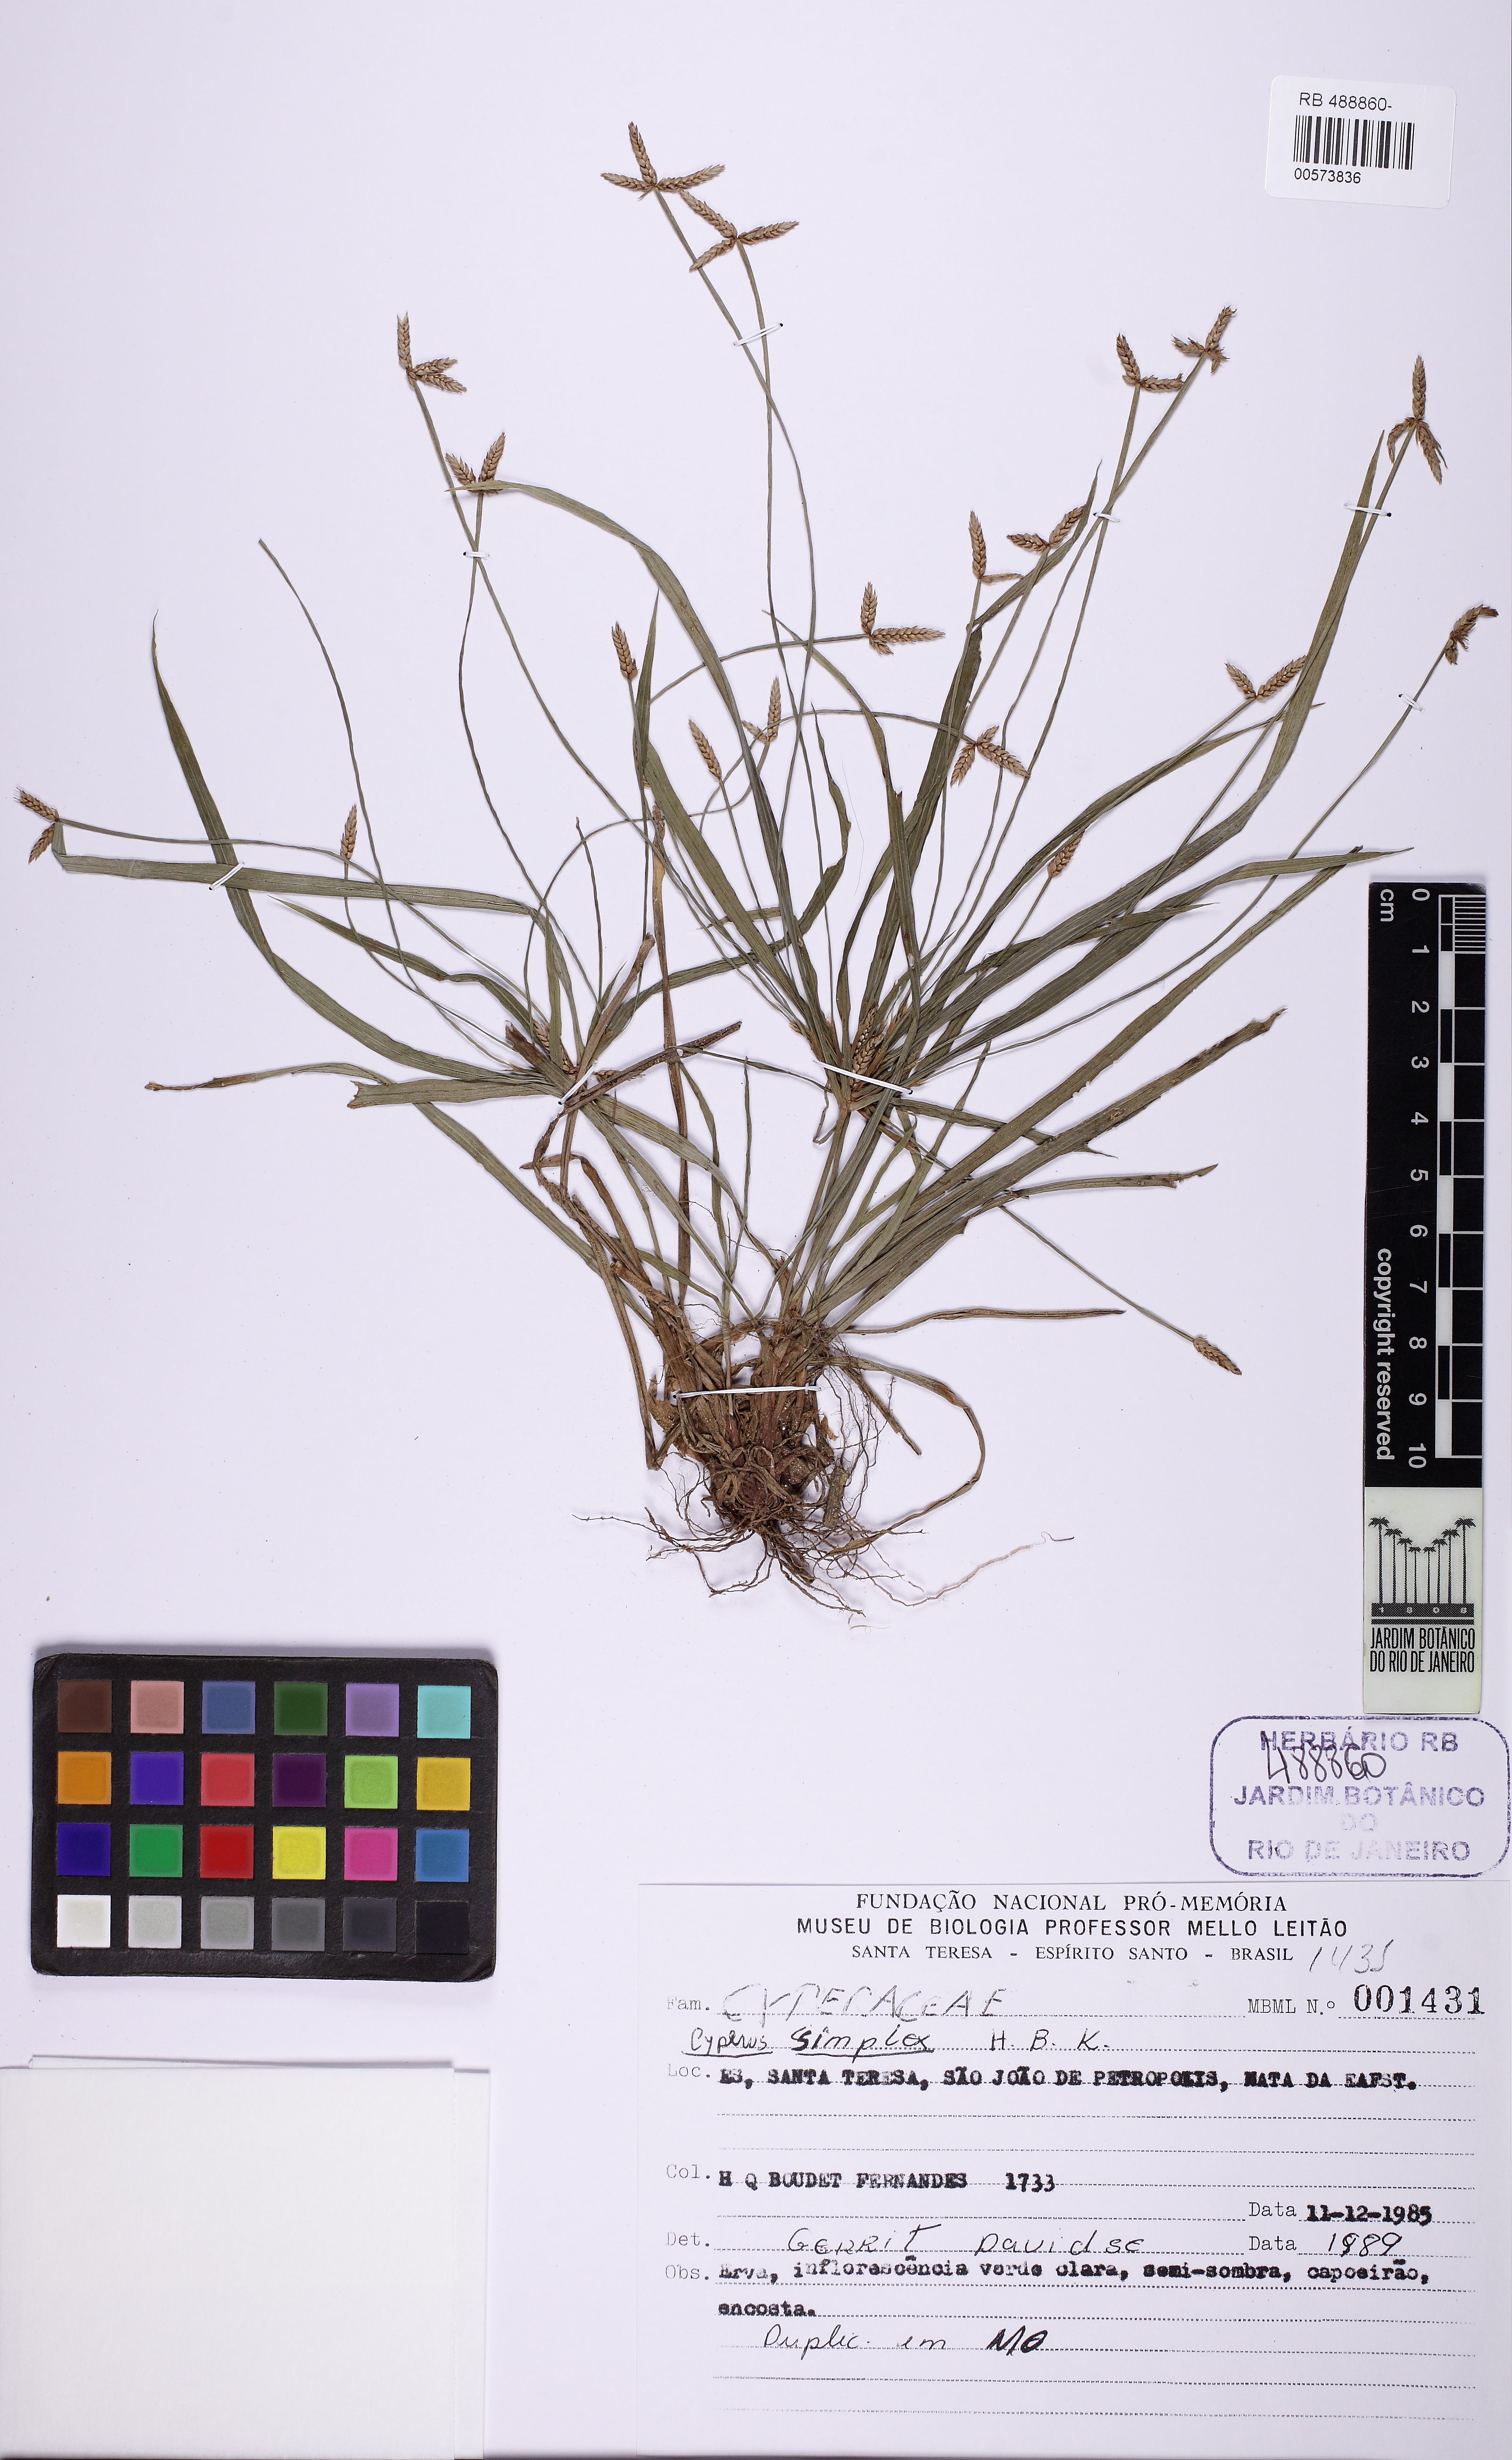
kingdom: Plantae
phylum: Tracheophyta
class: Liliopsida
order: Poales
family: Cyperaceae
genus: Cyperus
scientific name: Cyperus simplex
